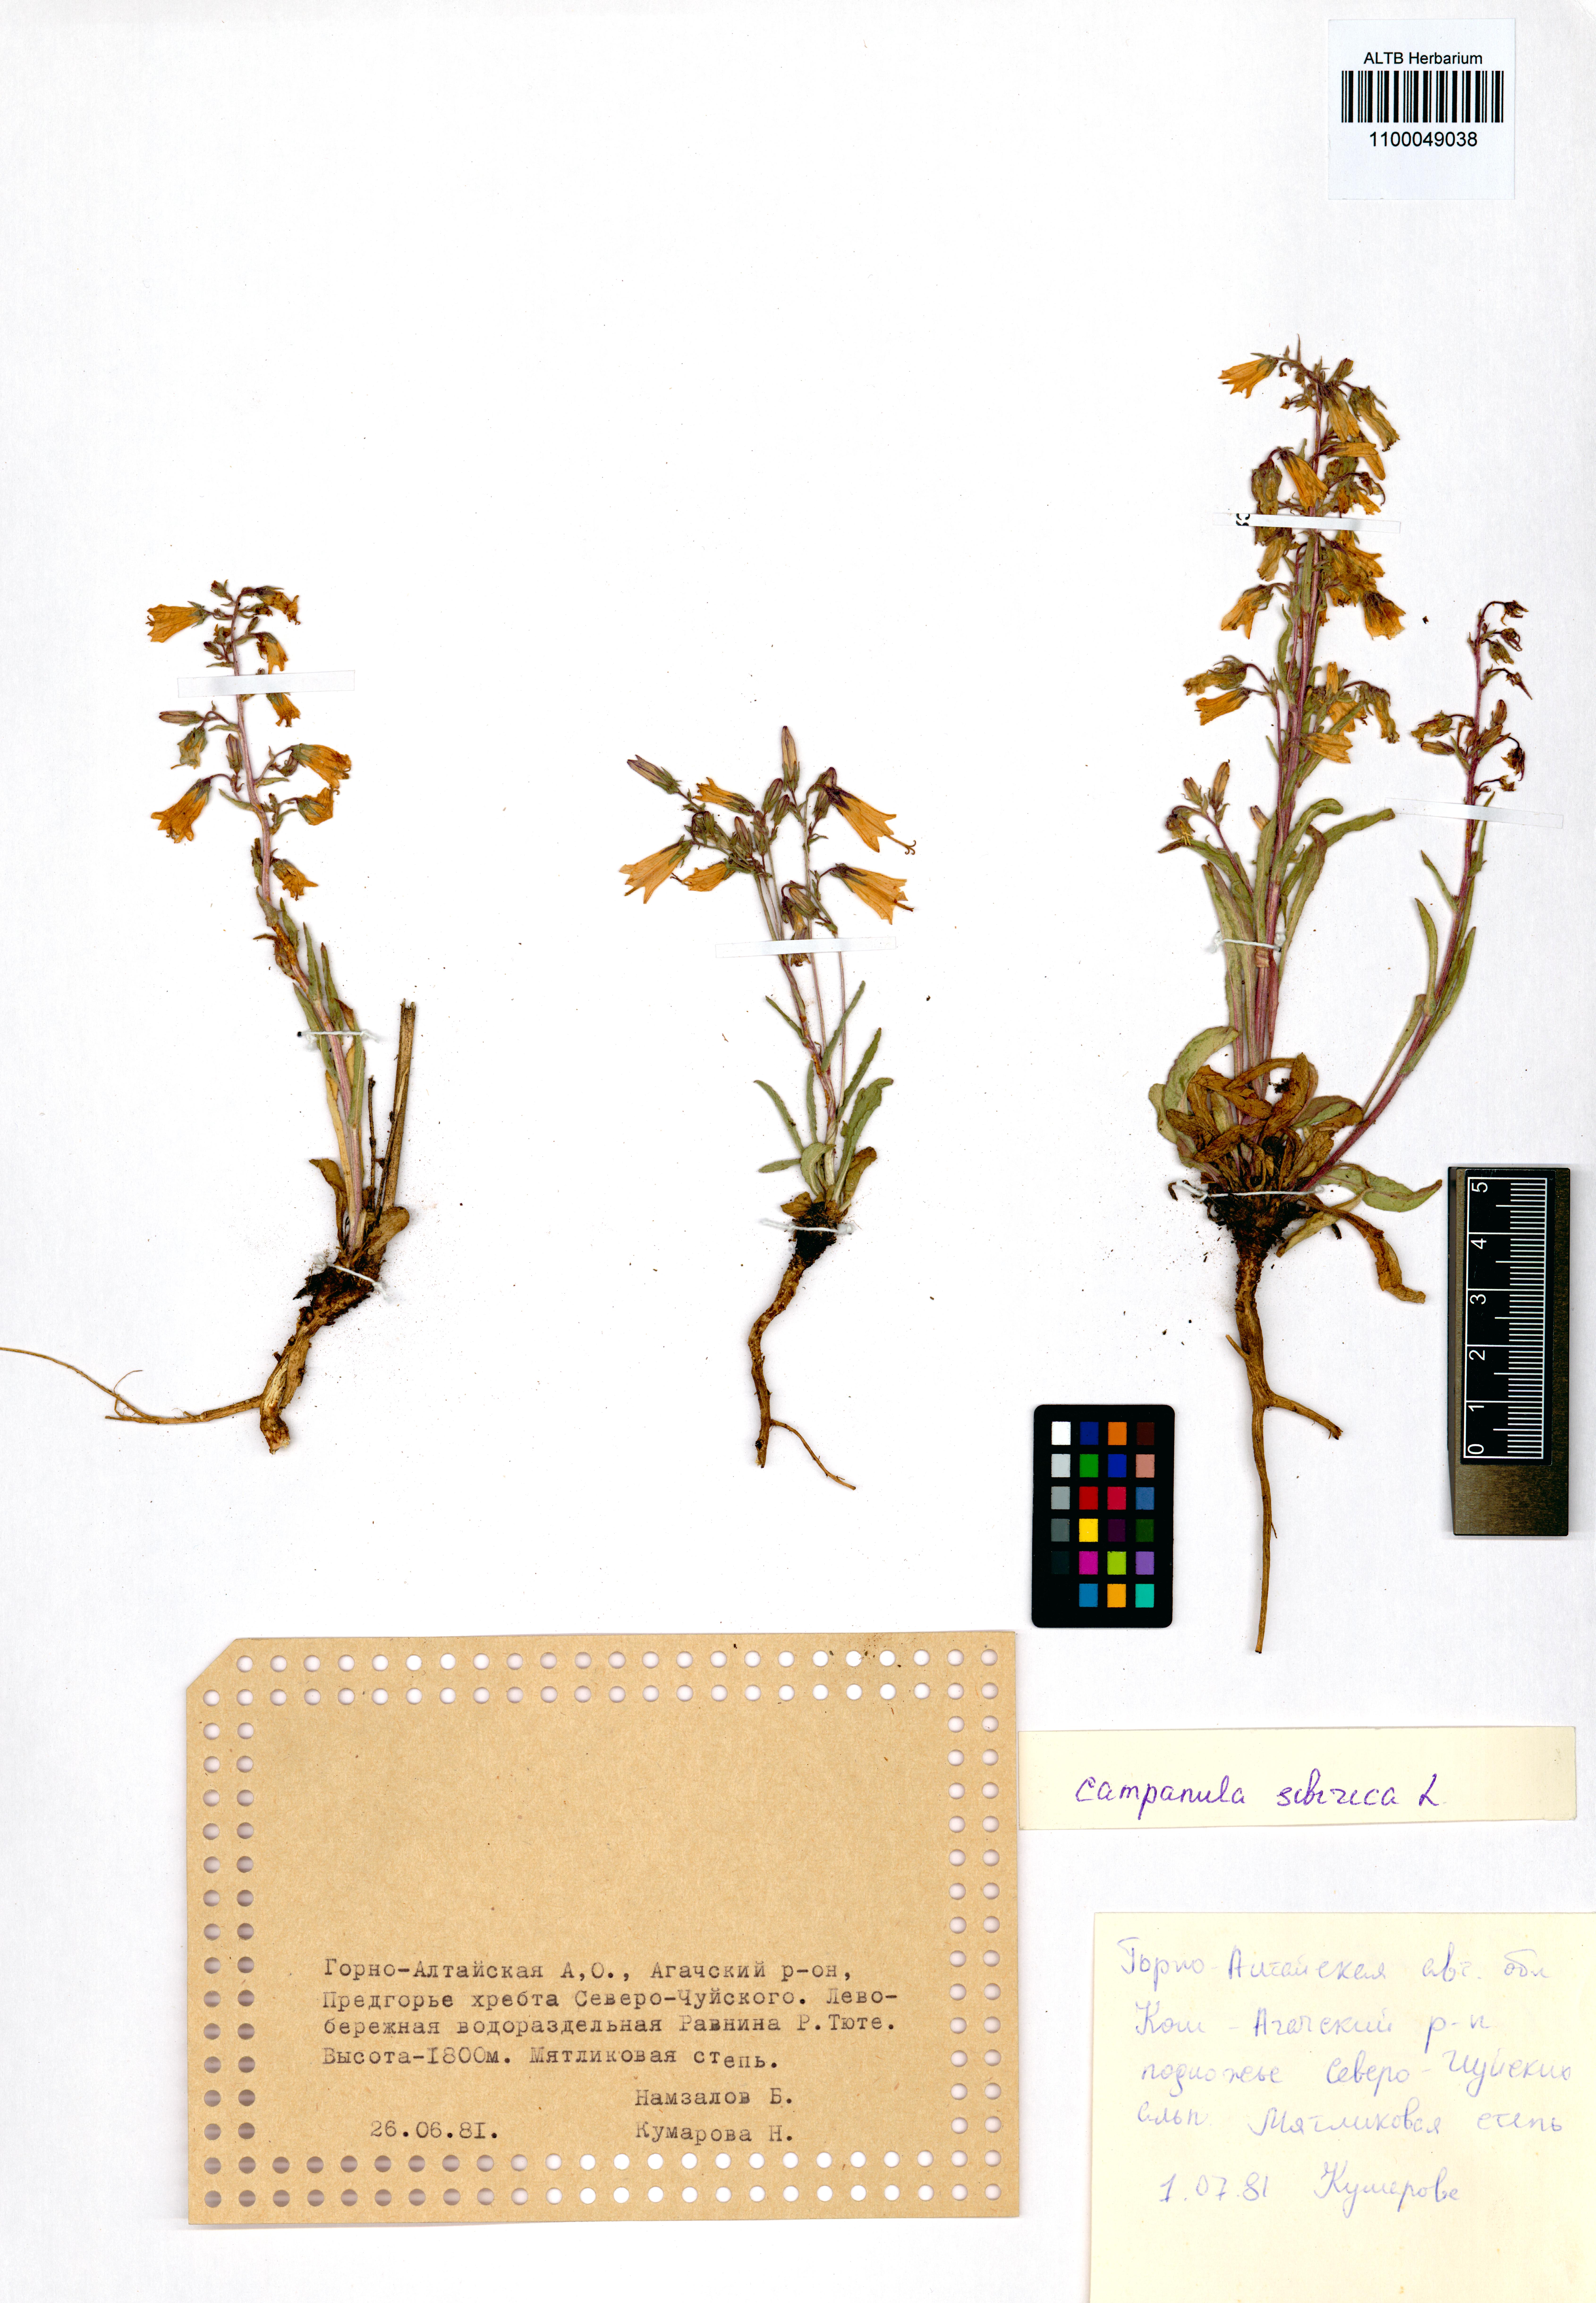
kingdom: Plantae
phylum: Tracheophyta
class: Magnoliopsida
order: Asterales
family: Campanulaceae
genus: Campanula
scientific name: Campanula sibirica
